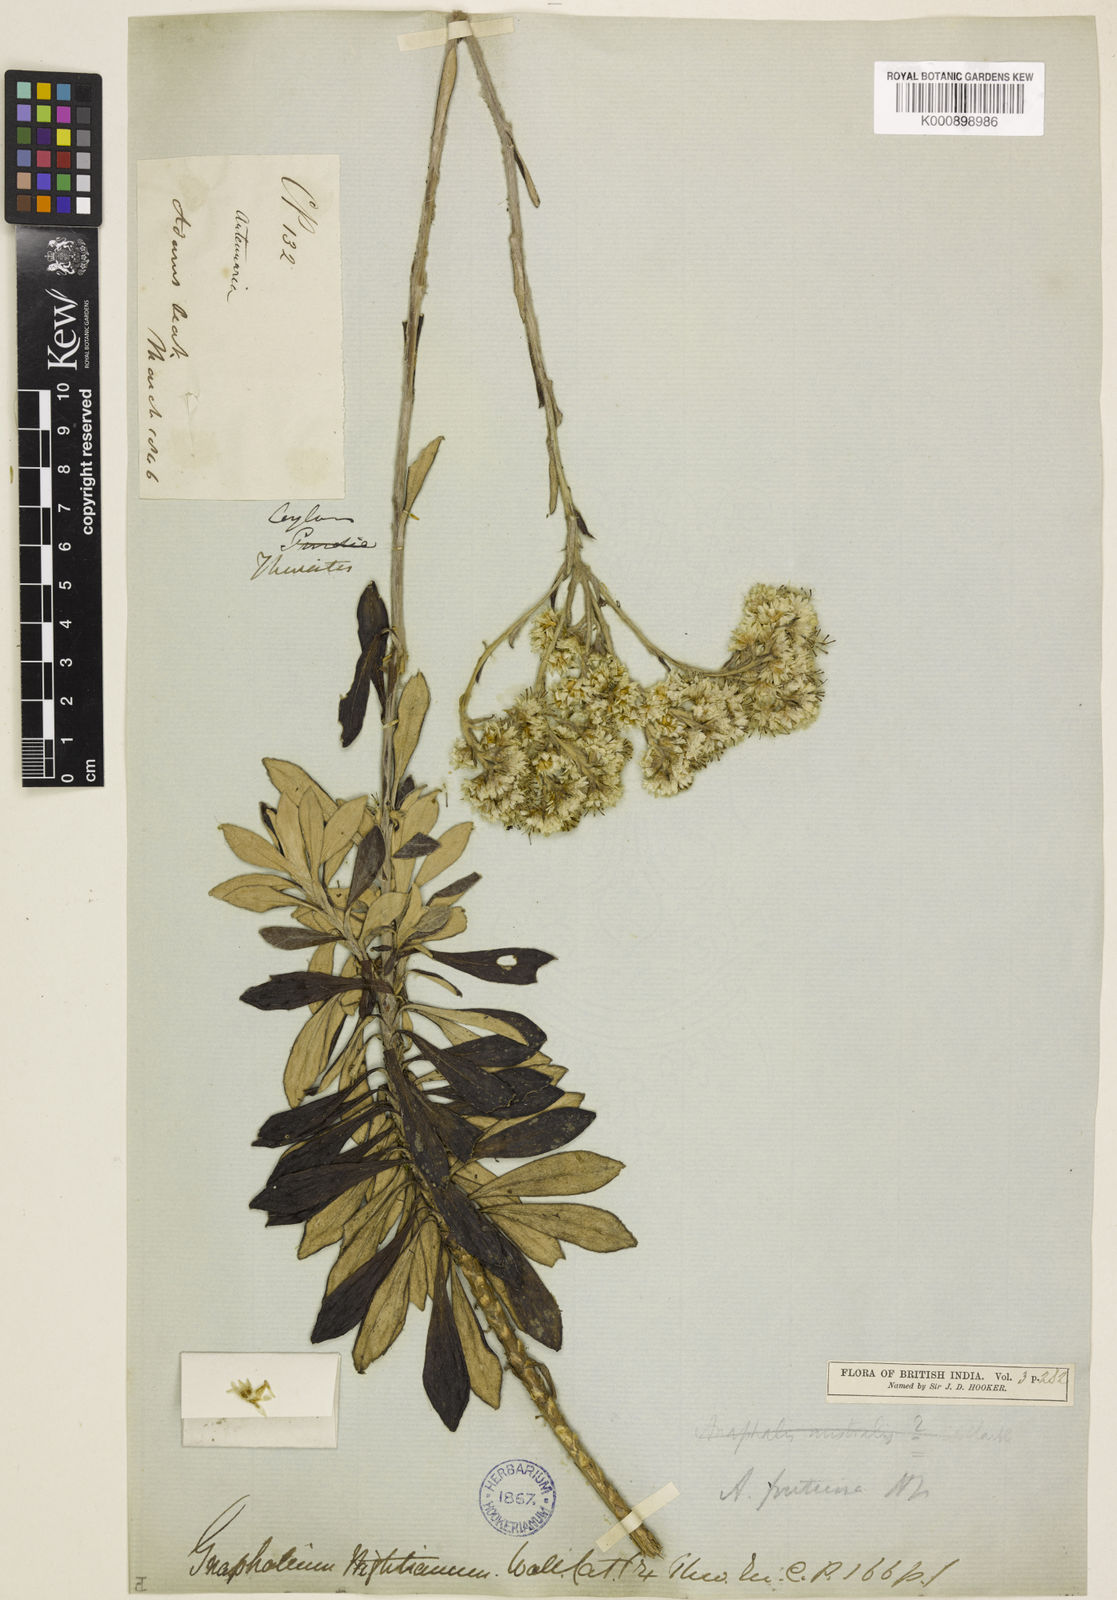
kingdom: Plantae
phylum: Tracheophyta
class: Magnoliopsida
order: Asterales
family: Asteraceae
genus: Anaphalis
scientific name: Anaphalis fruticosa
